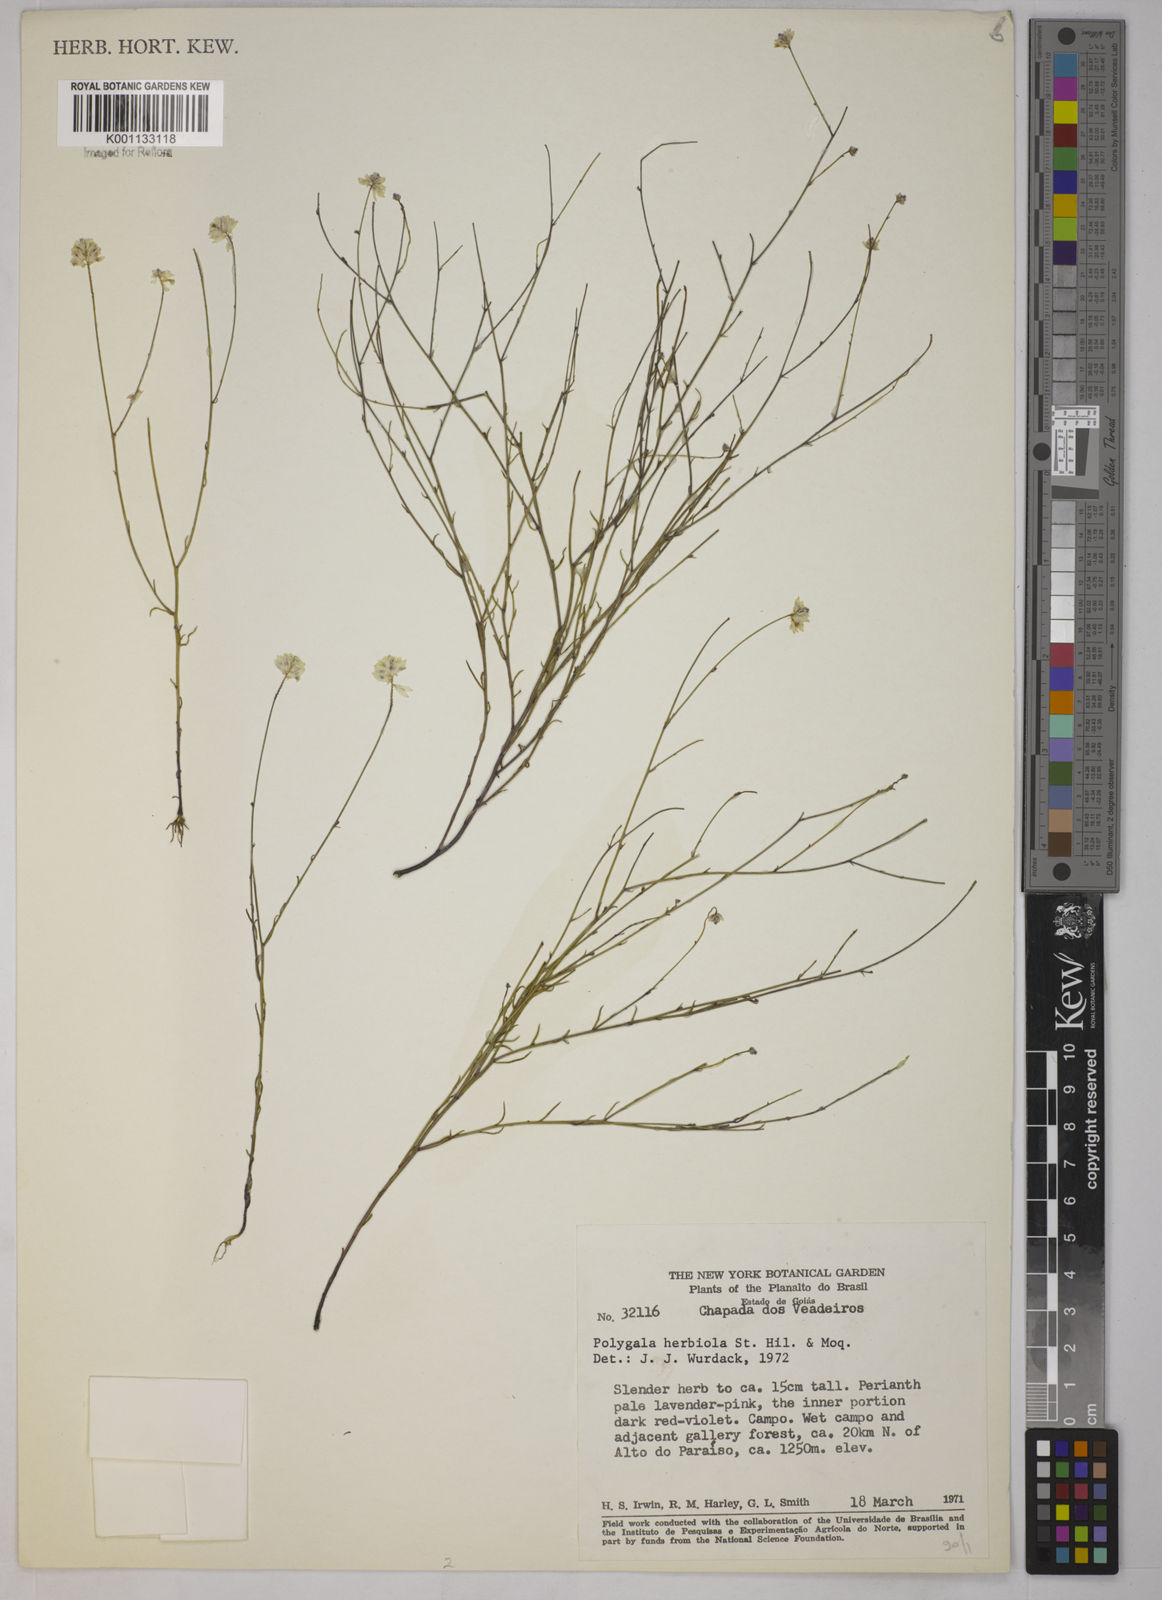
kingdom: Plantae
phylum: Tracheophyta
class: Magnoliopsida
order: Fabales
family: Polygalaceae
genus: Polygala
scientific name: Polygala herbiola
